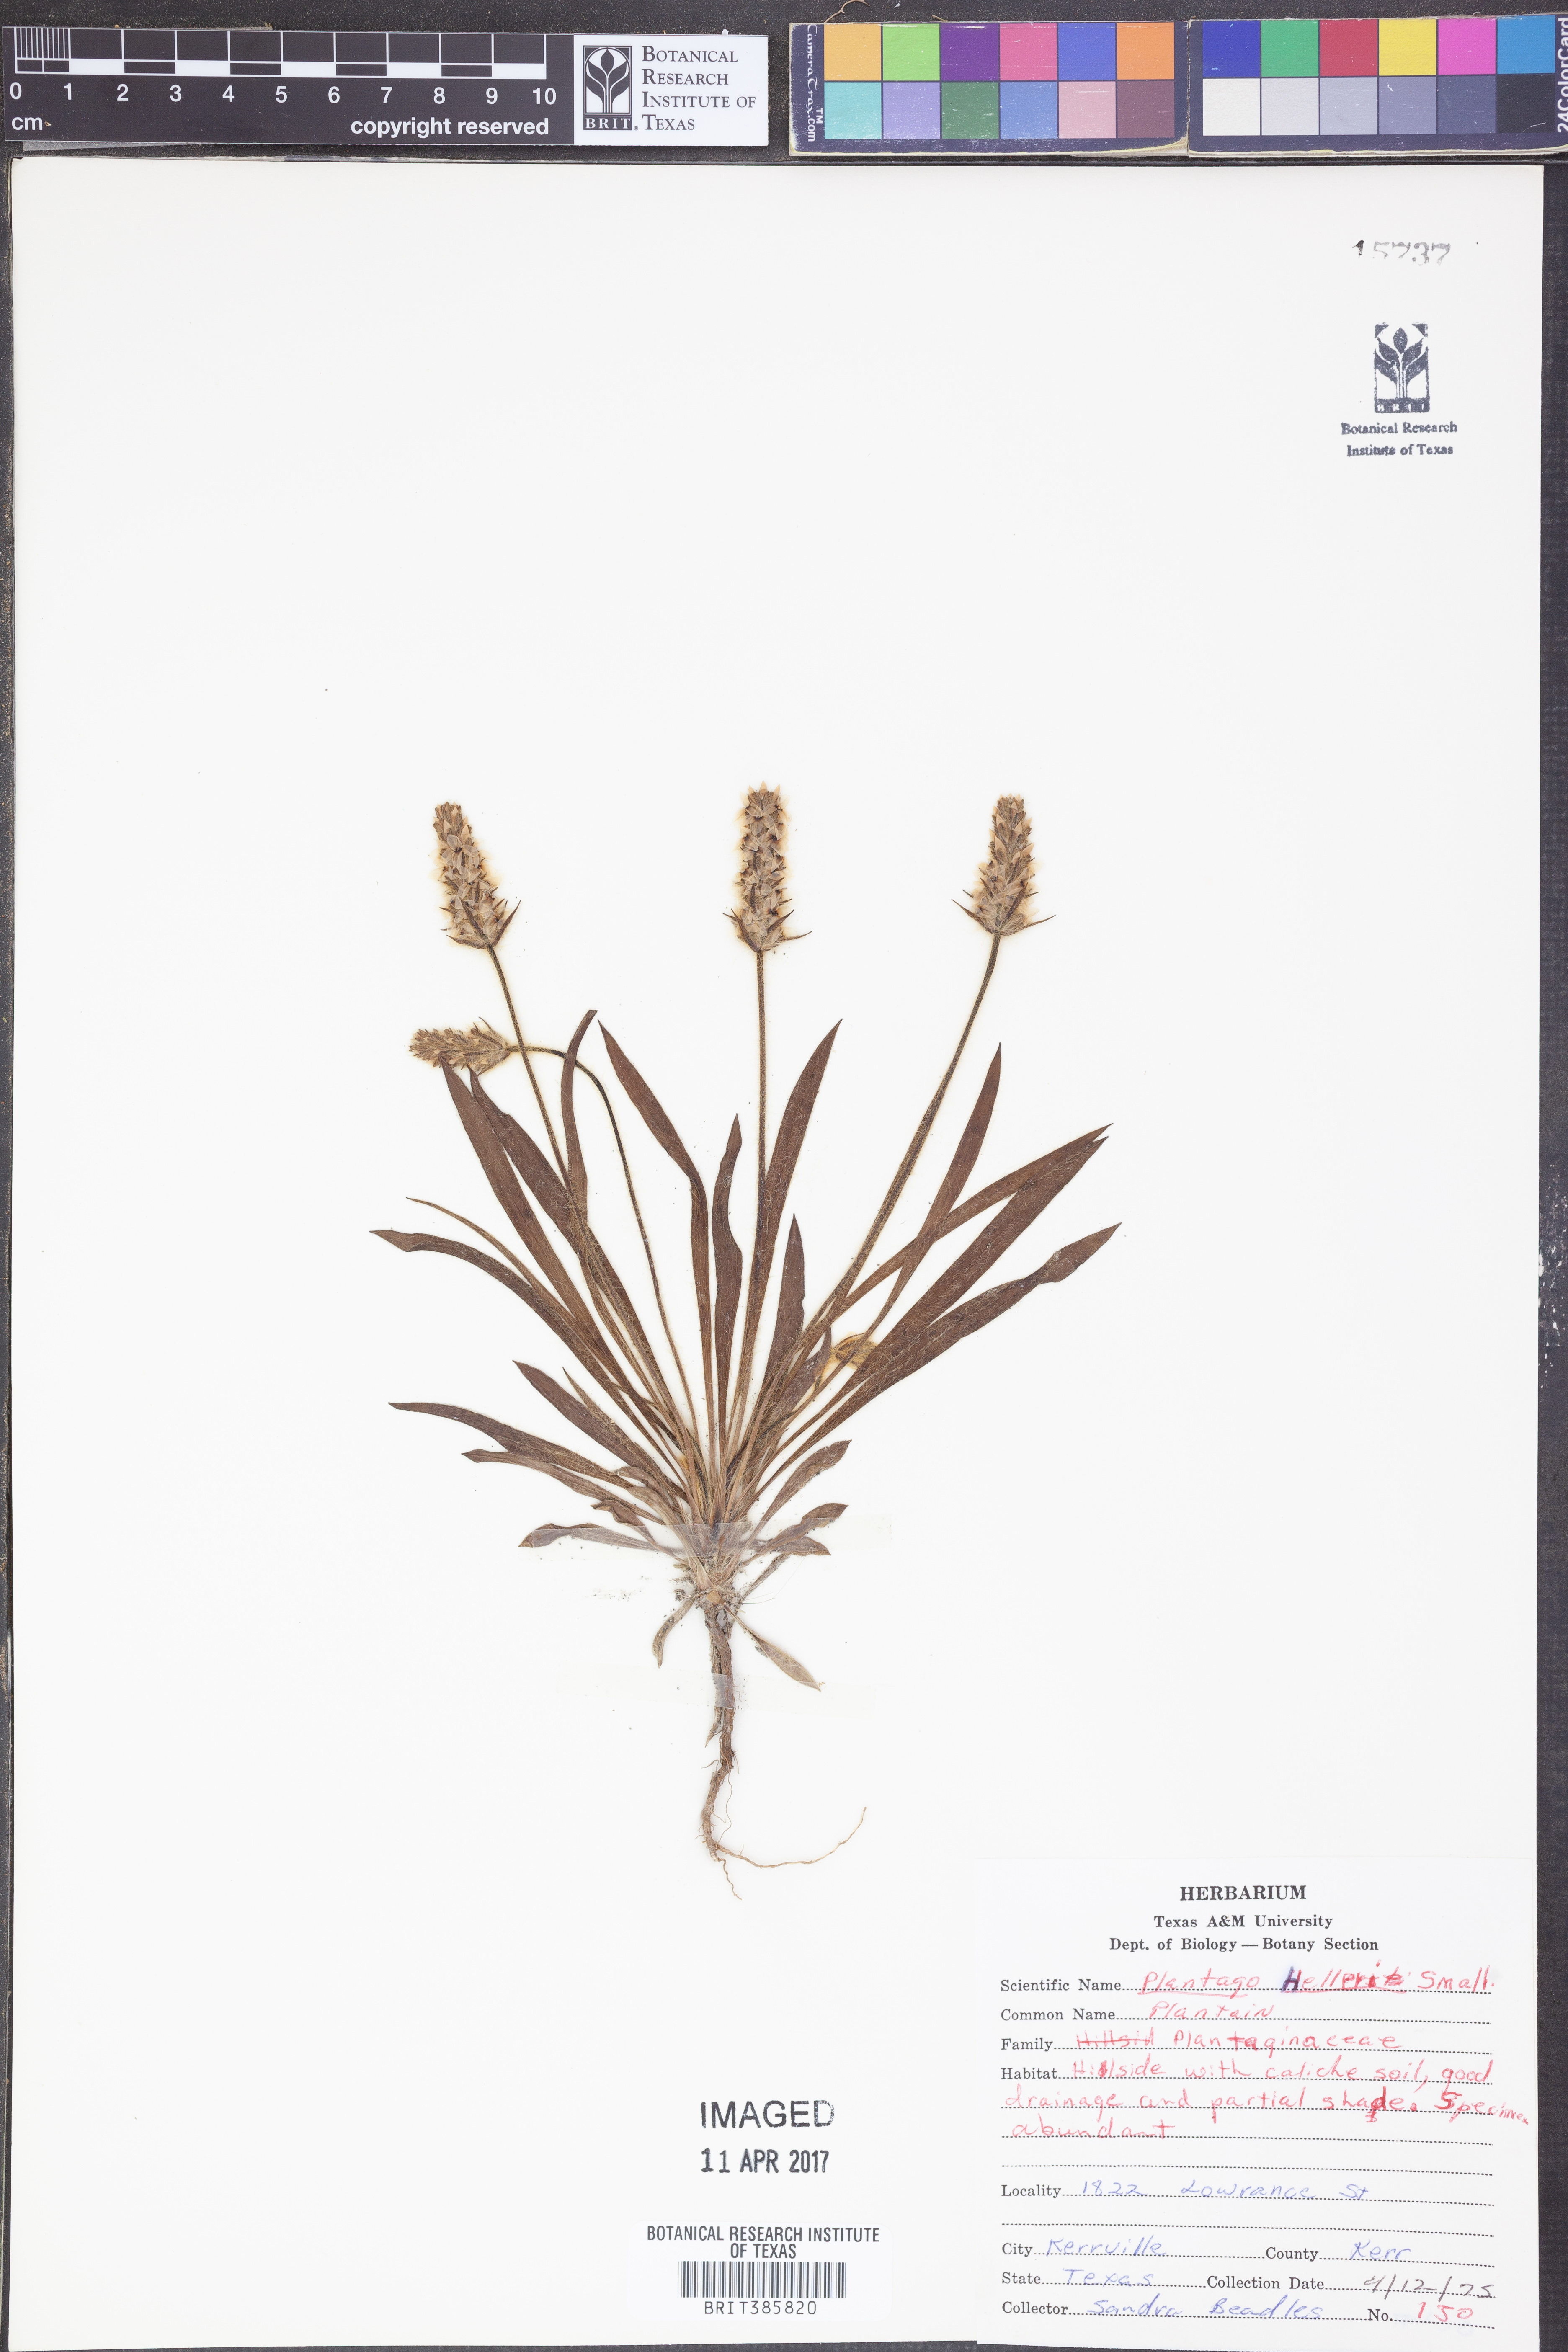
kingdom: Plantae
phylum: Tracheophyta
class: Magnoliopsida
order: Lamiales
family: Plantaginaceae
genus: Plantago
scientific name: Plantago helleri
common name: Heller's plantain
